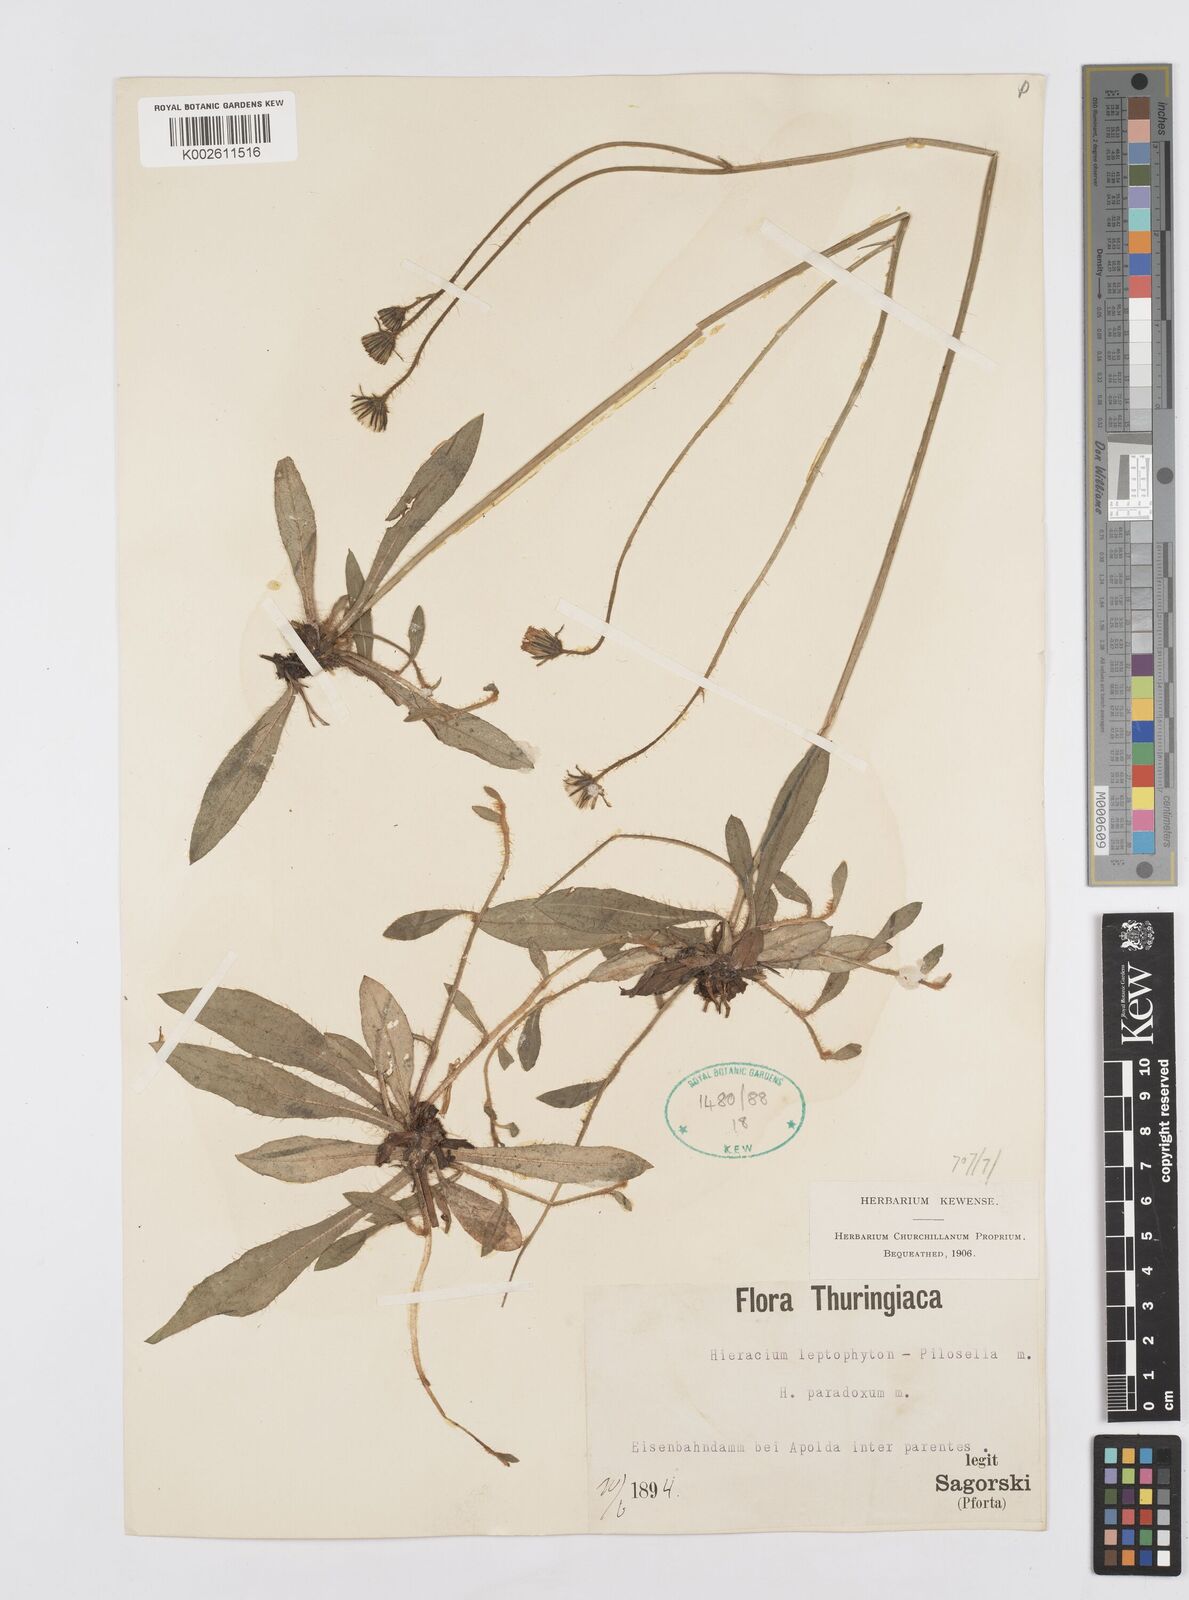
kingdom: Plantae
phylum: Tracheophyta
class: Magnoliopsida
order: Asterales
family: Asteraceae
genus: Pilosella
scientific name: Pilosella leptophyton
